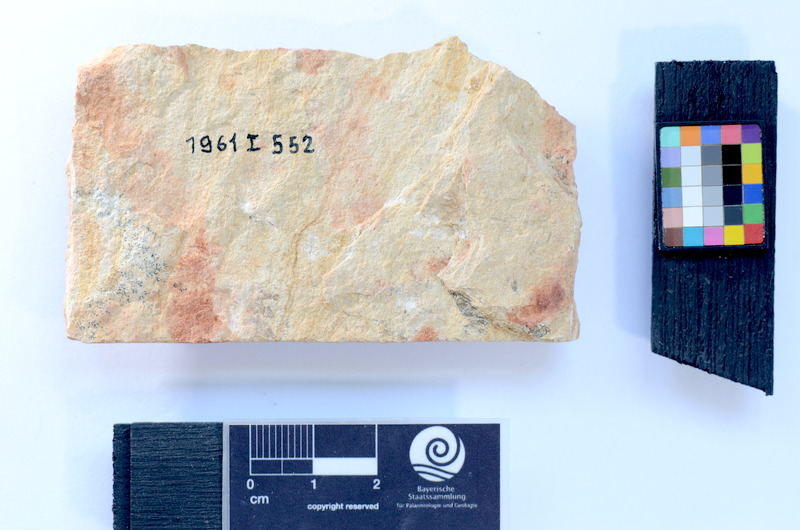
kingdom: Animalia
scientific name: Animalia
